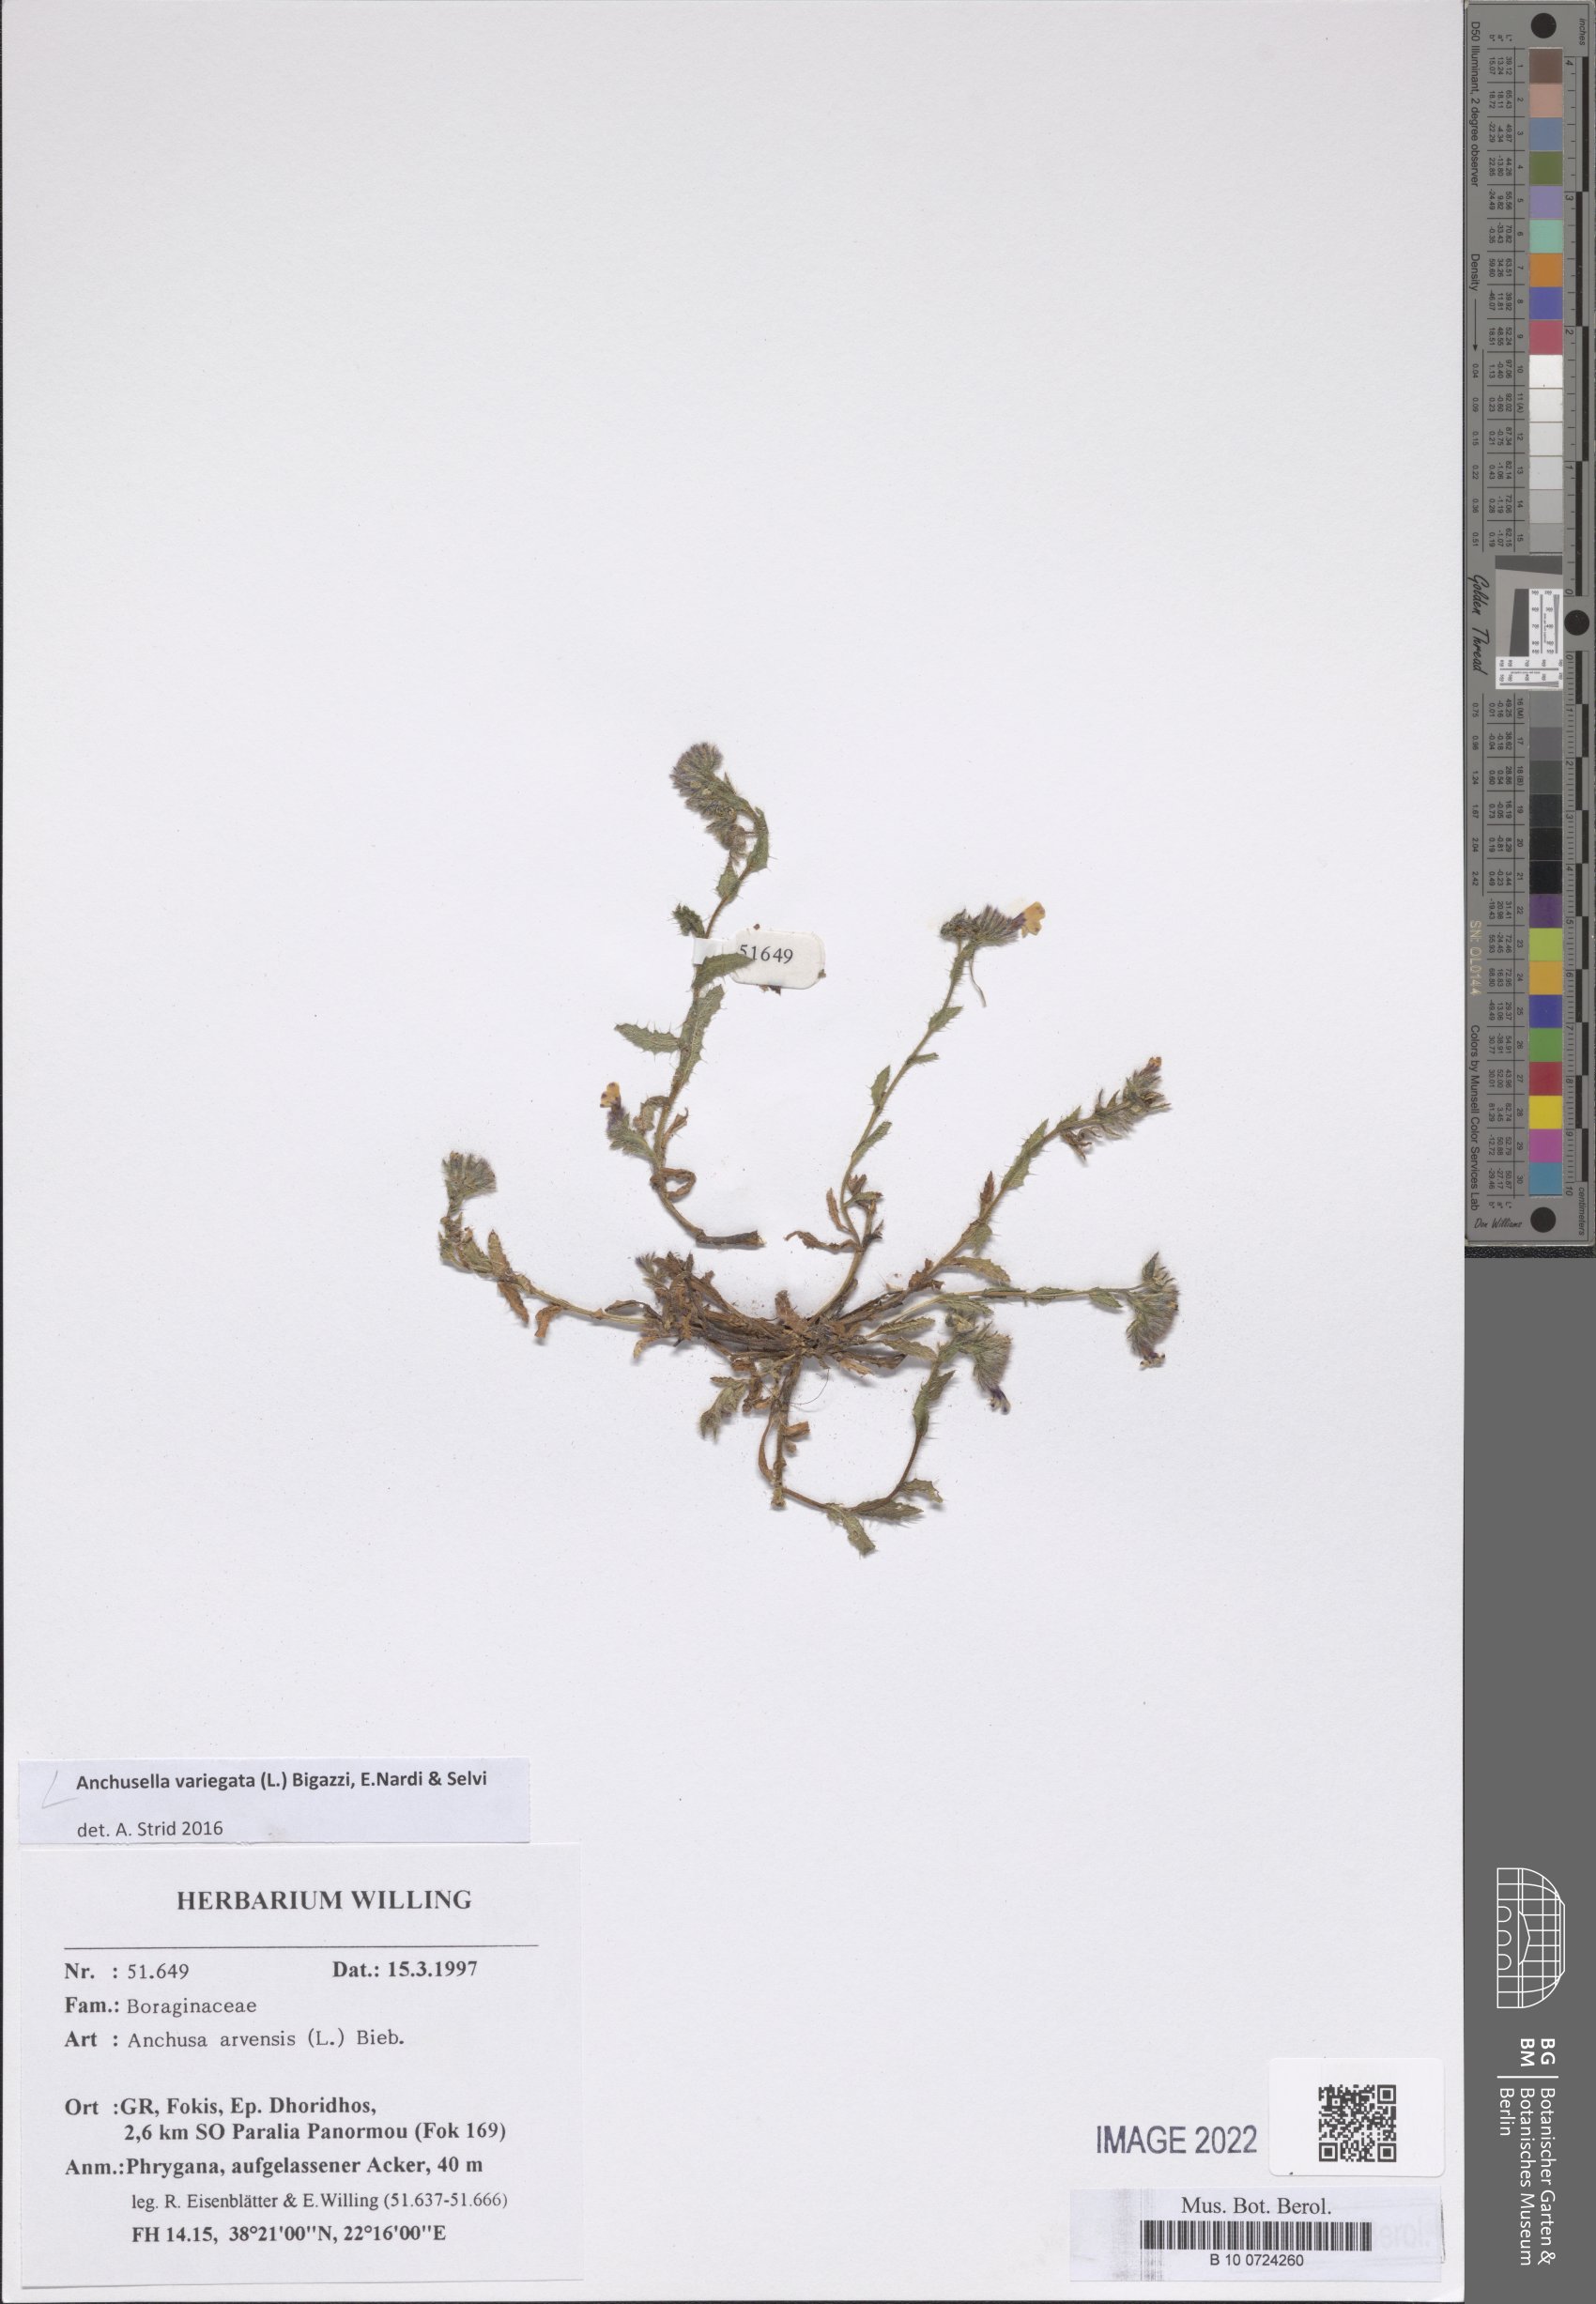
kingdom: Plantae
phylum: Tracheophyta
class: Magnoliopsida
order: Boraginales
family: Boraginaceae
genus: Anchusella
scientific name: Anchusella variegata
